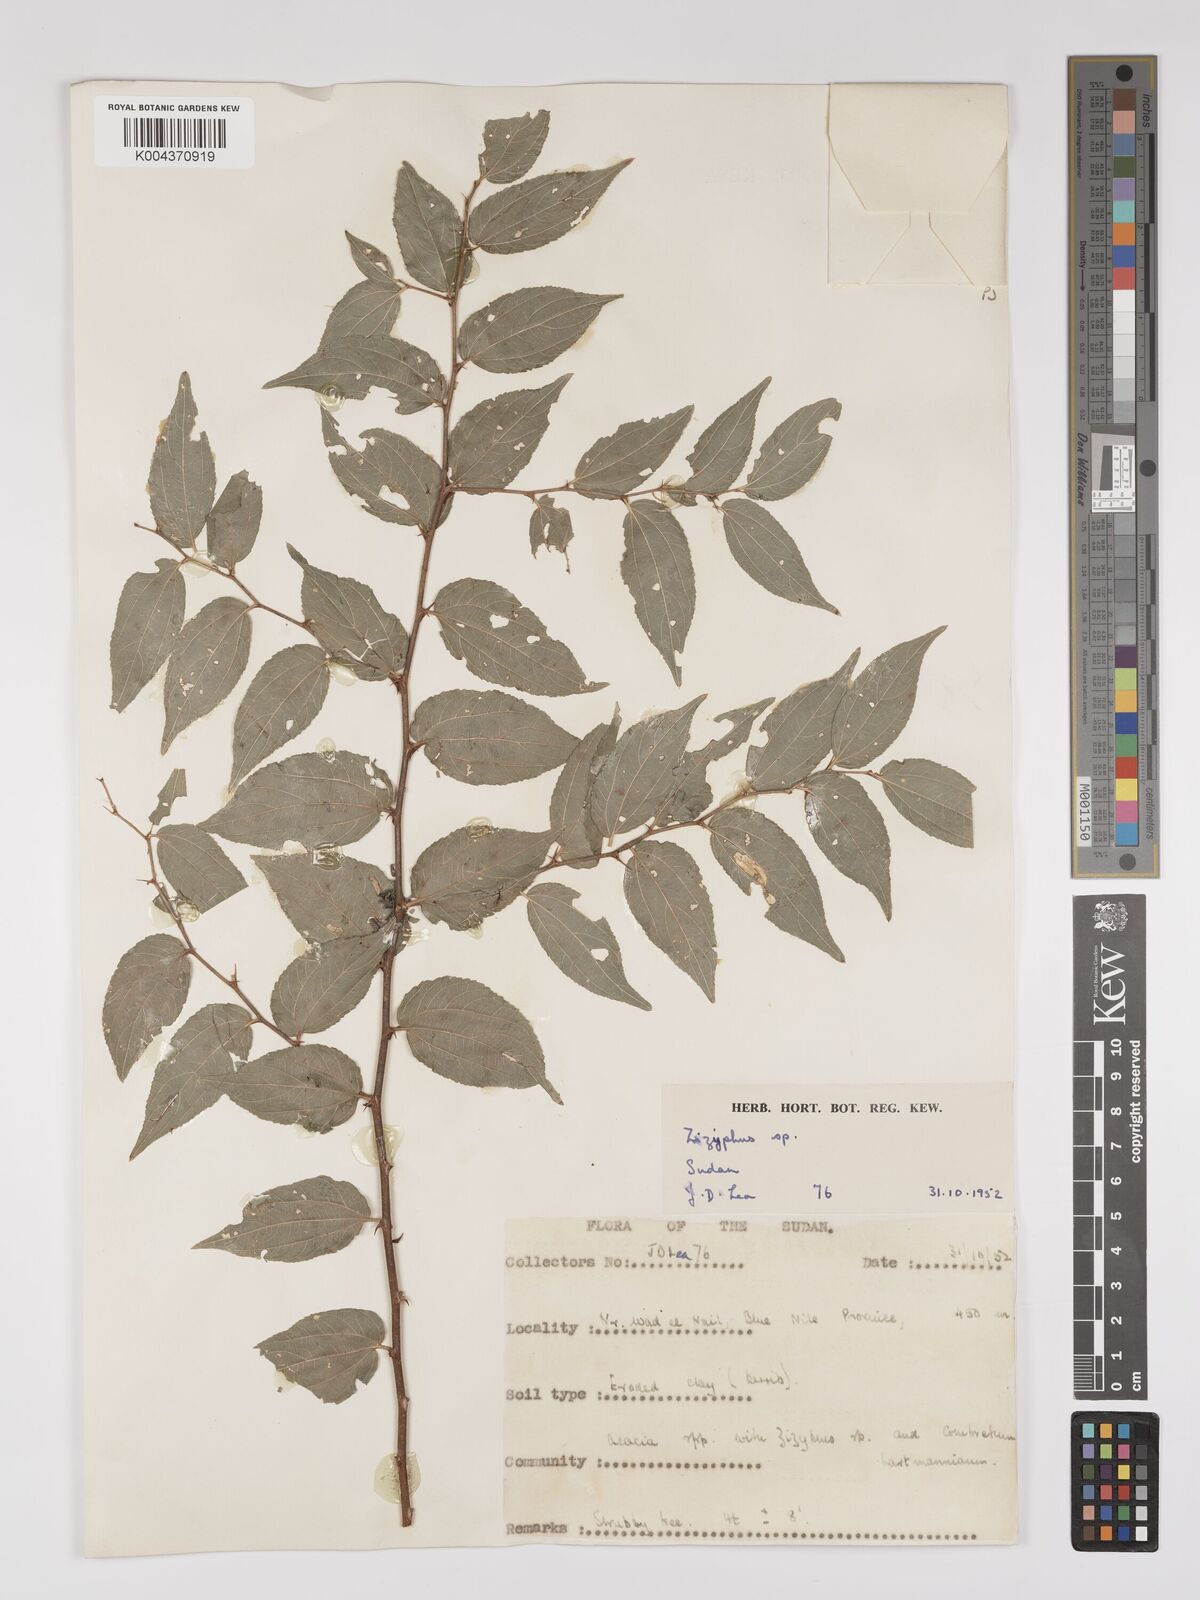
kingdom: Plantae
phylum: Tracheophyta
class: Magnoliopsida
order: Rosales
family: Rhamnaceae
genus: Ziziphus
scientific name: Ziziphus
